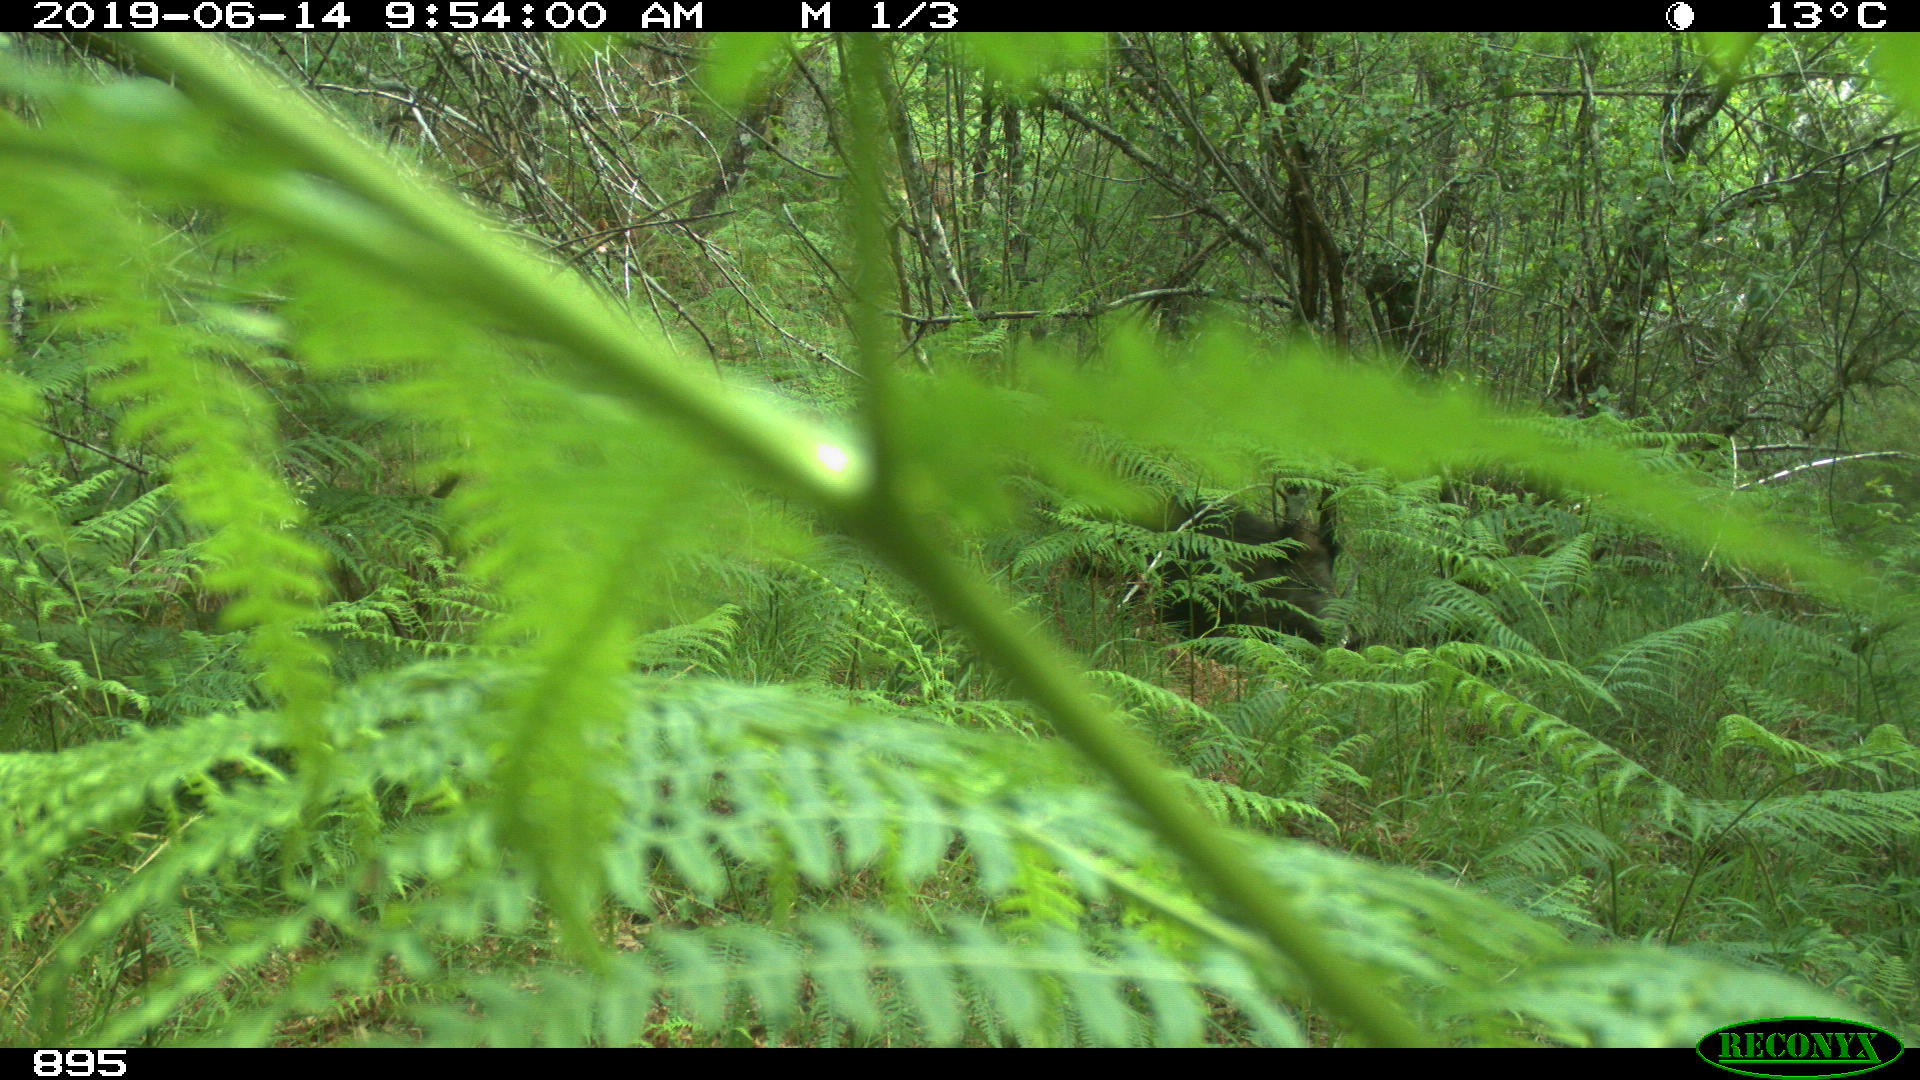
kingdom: Animalia
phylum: Chordata
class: Mammalia
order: Artiodactyla
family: Suidae
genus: Sus
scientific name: Sus scrofa
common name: Wild boar
